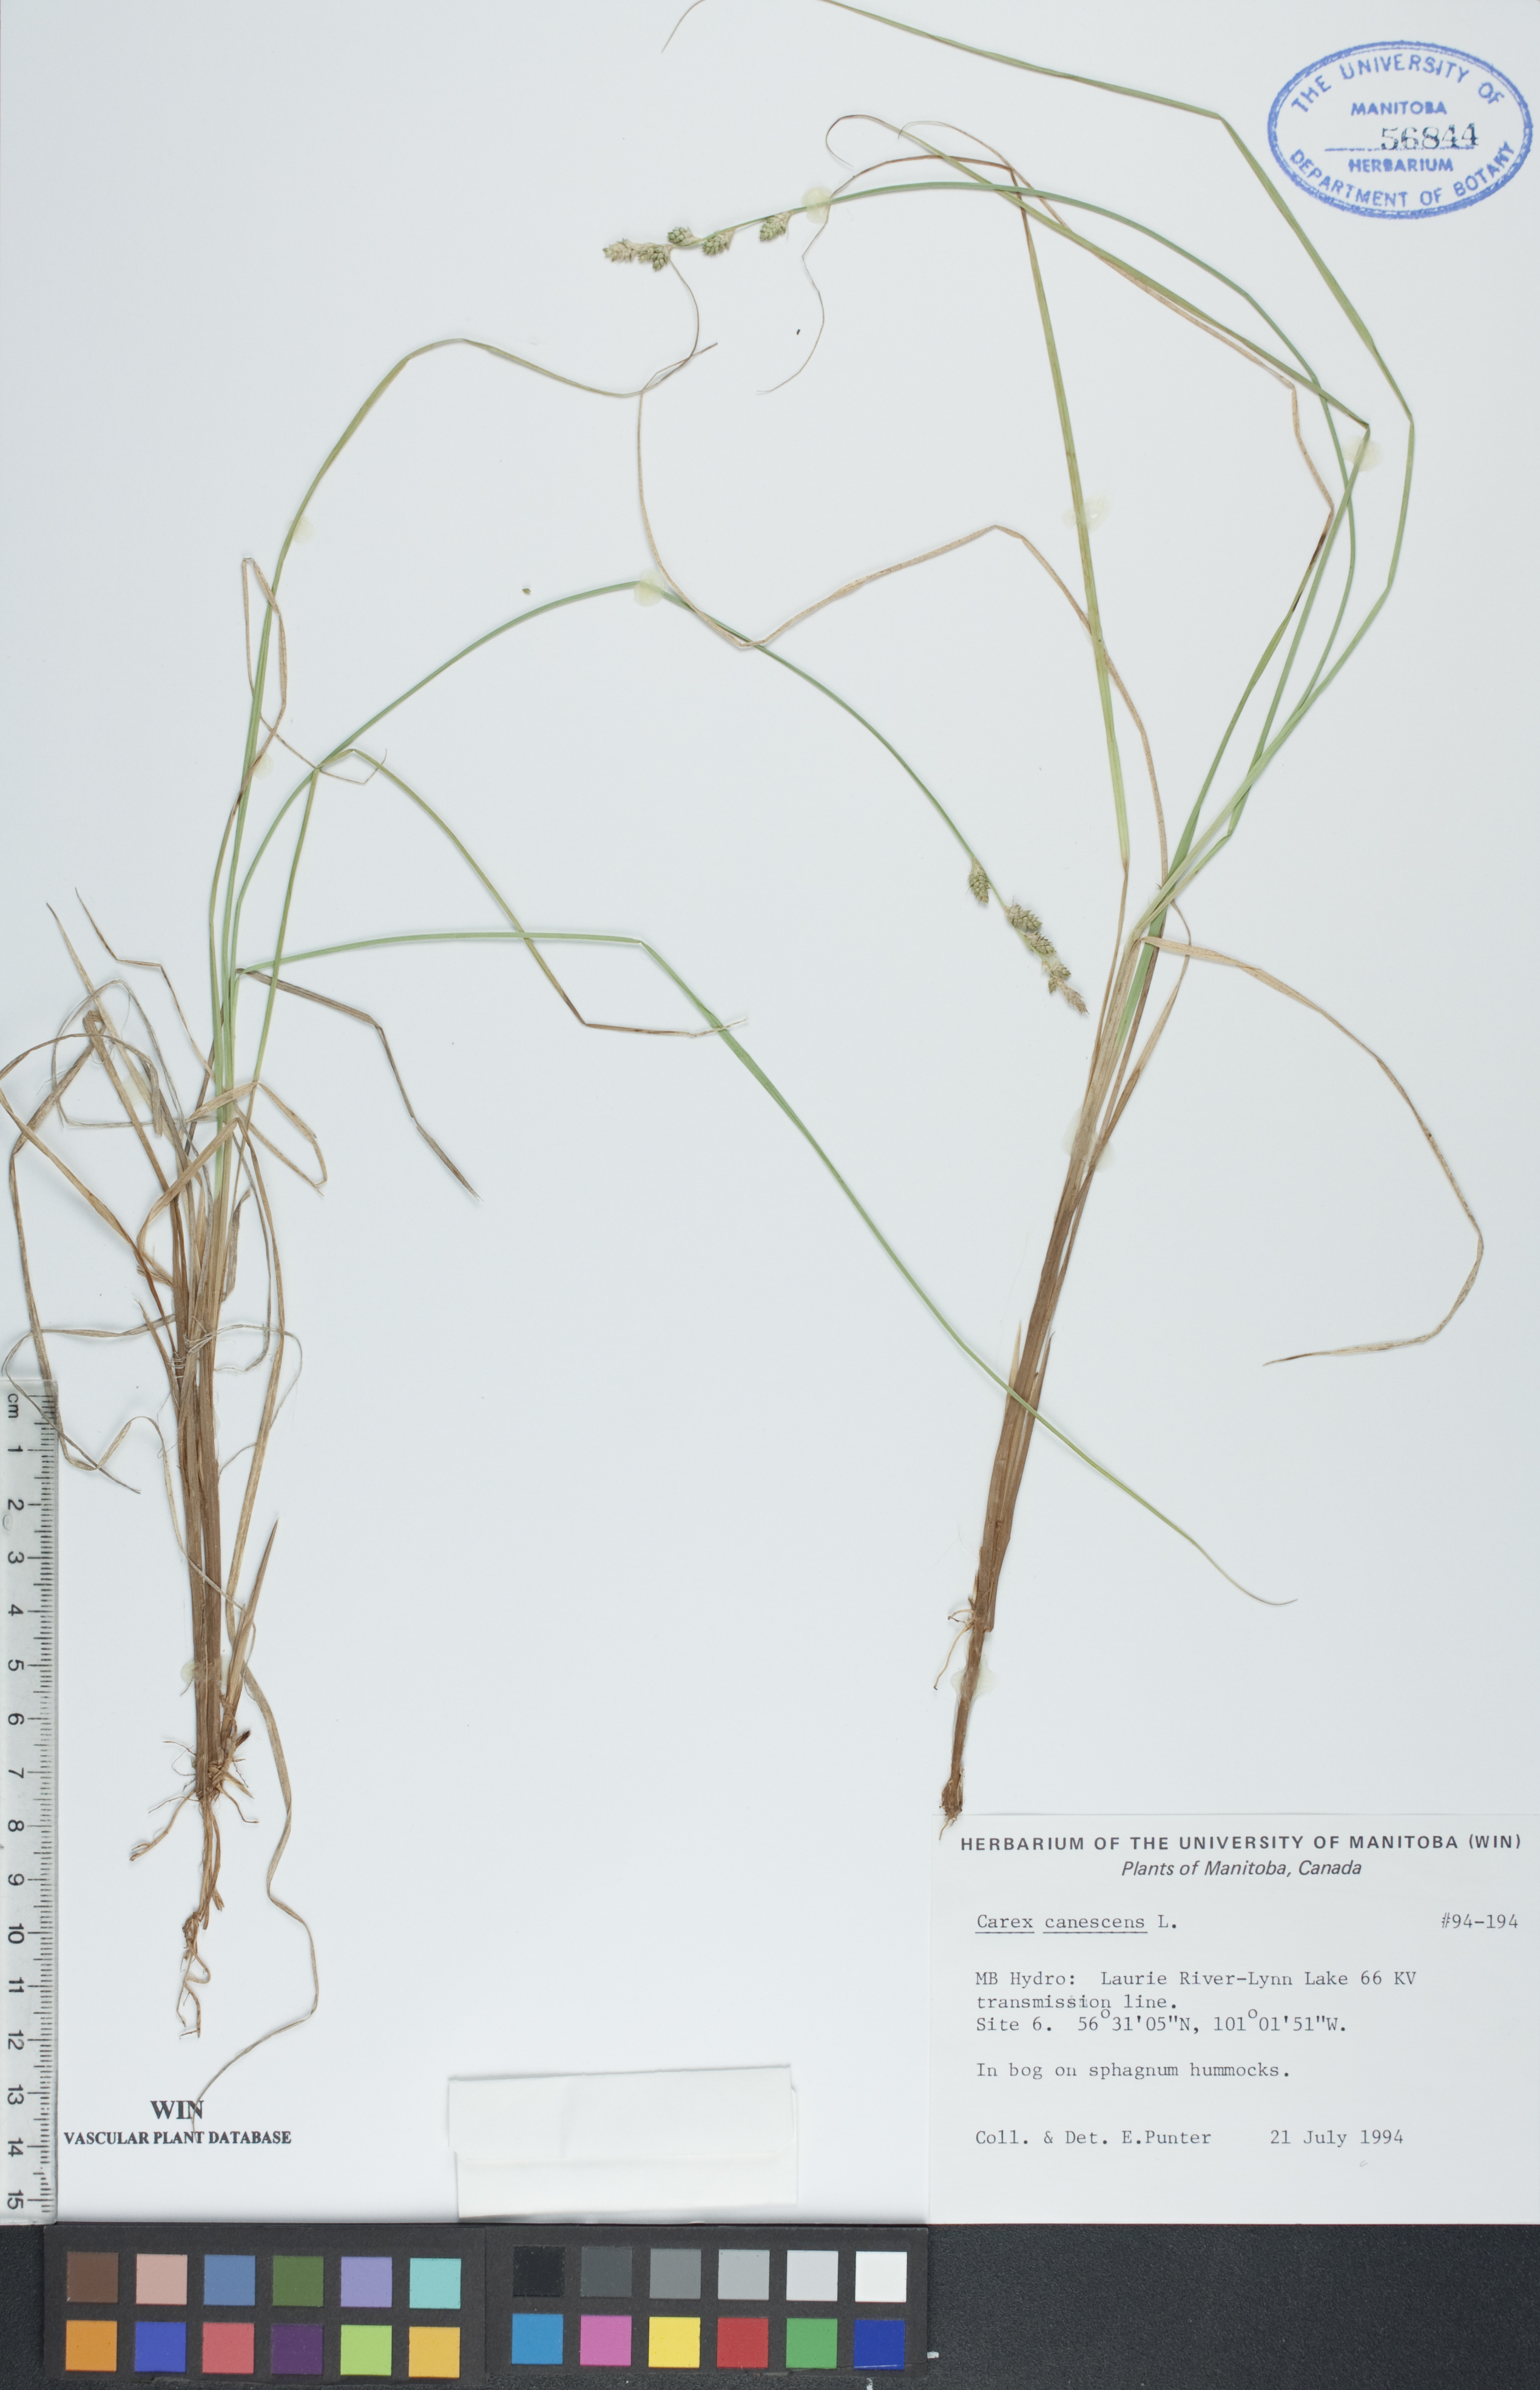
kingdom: Plantae
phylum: Tracheophyta
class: Liliopsida
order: Poales
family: Cyperaceae
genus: Carex
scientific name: Carex canescens
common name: White sedge
